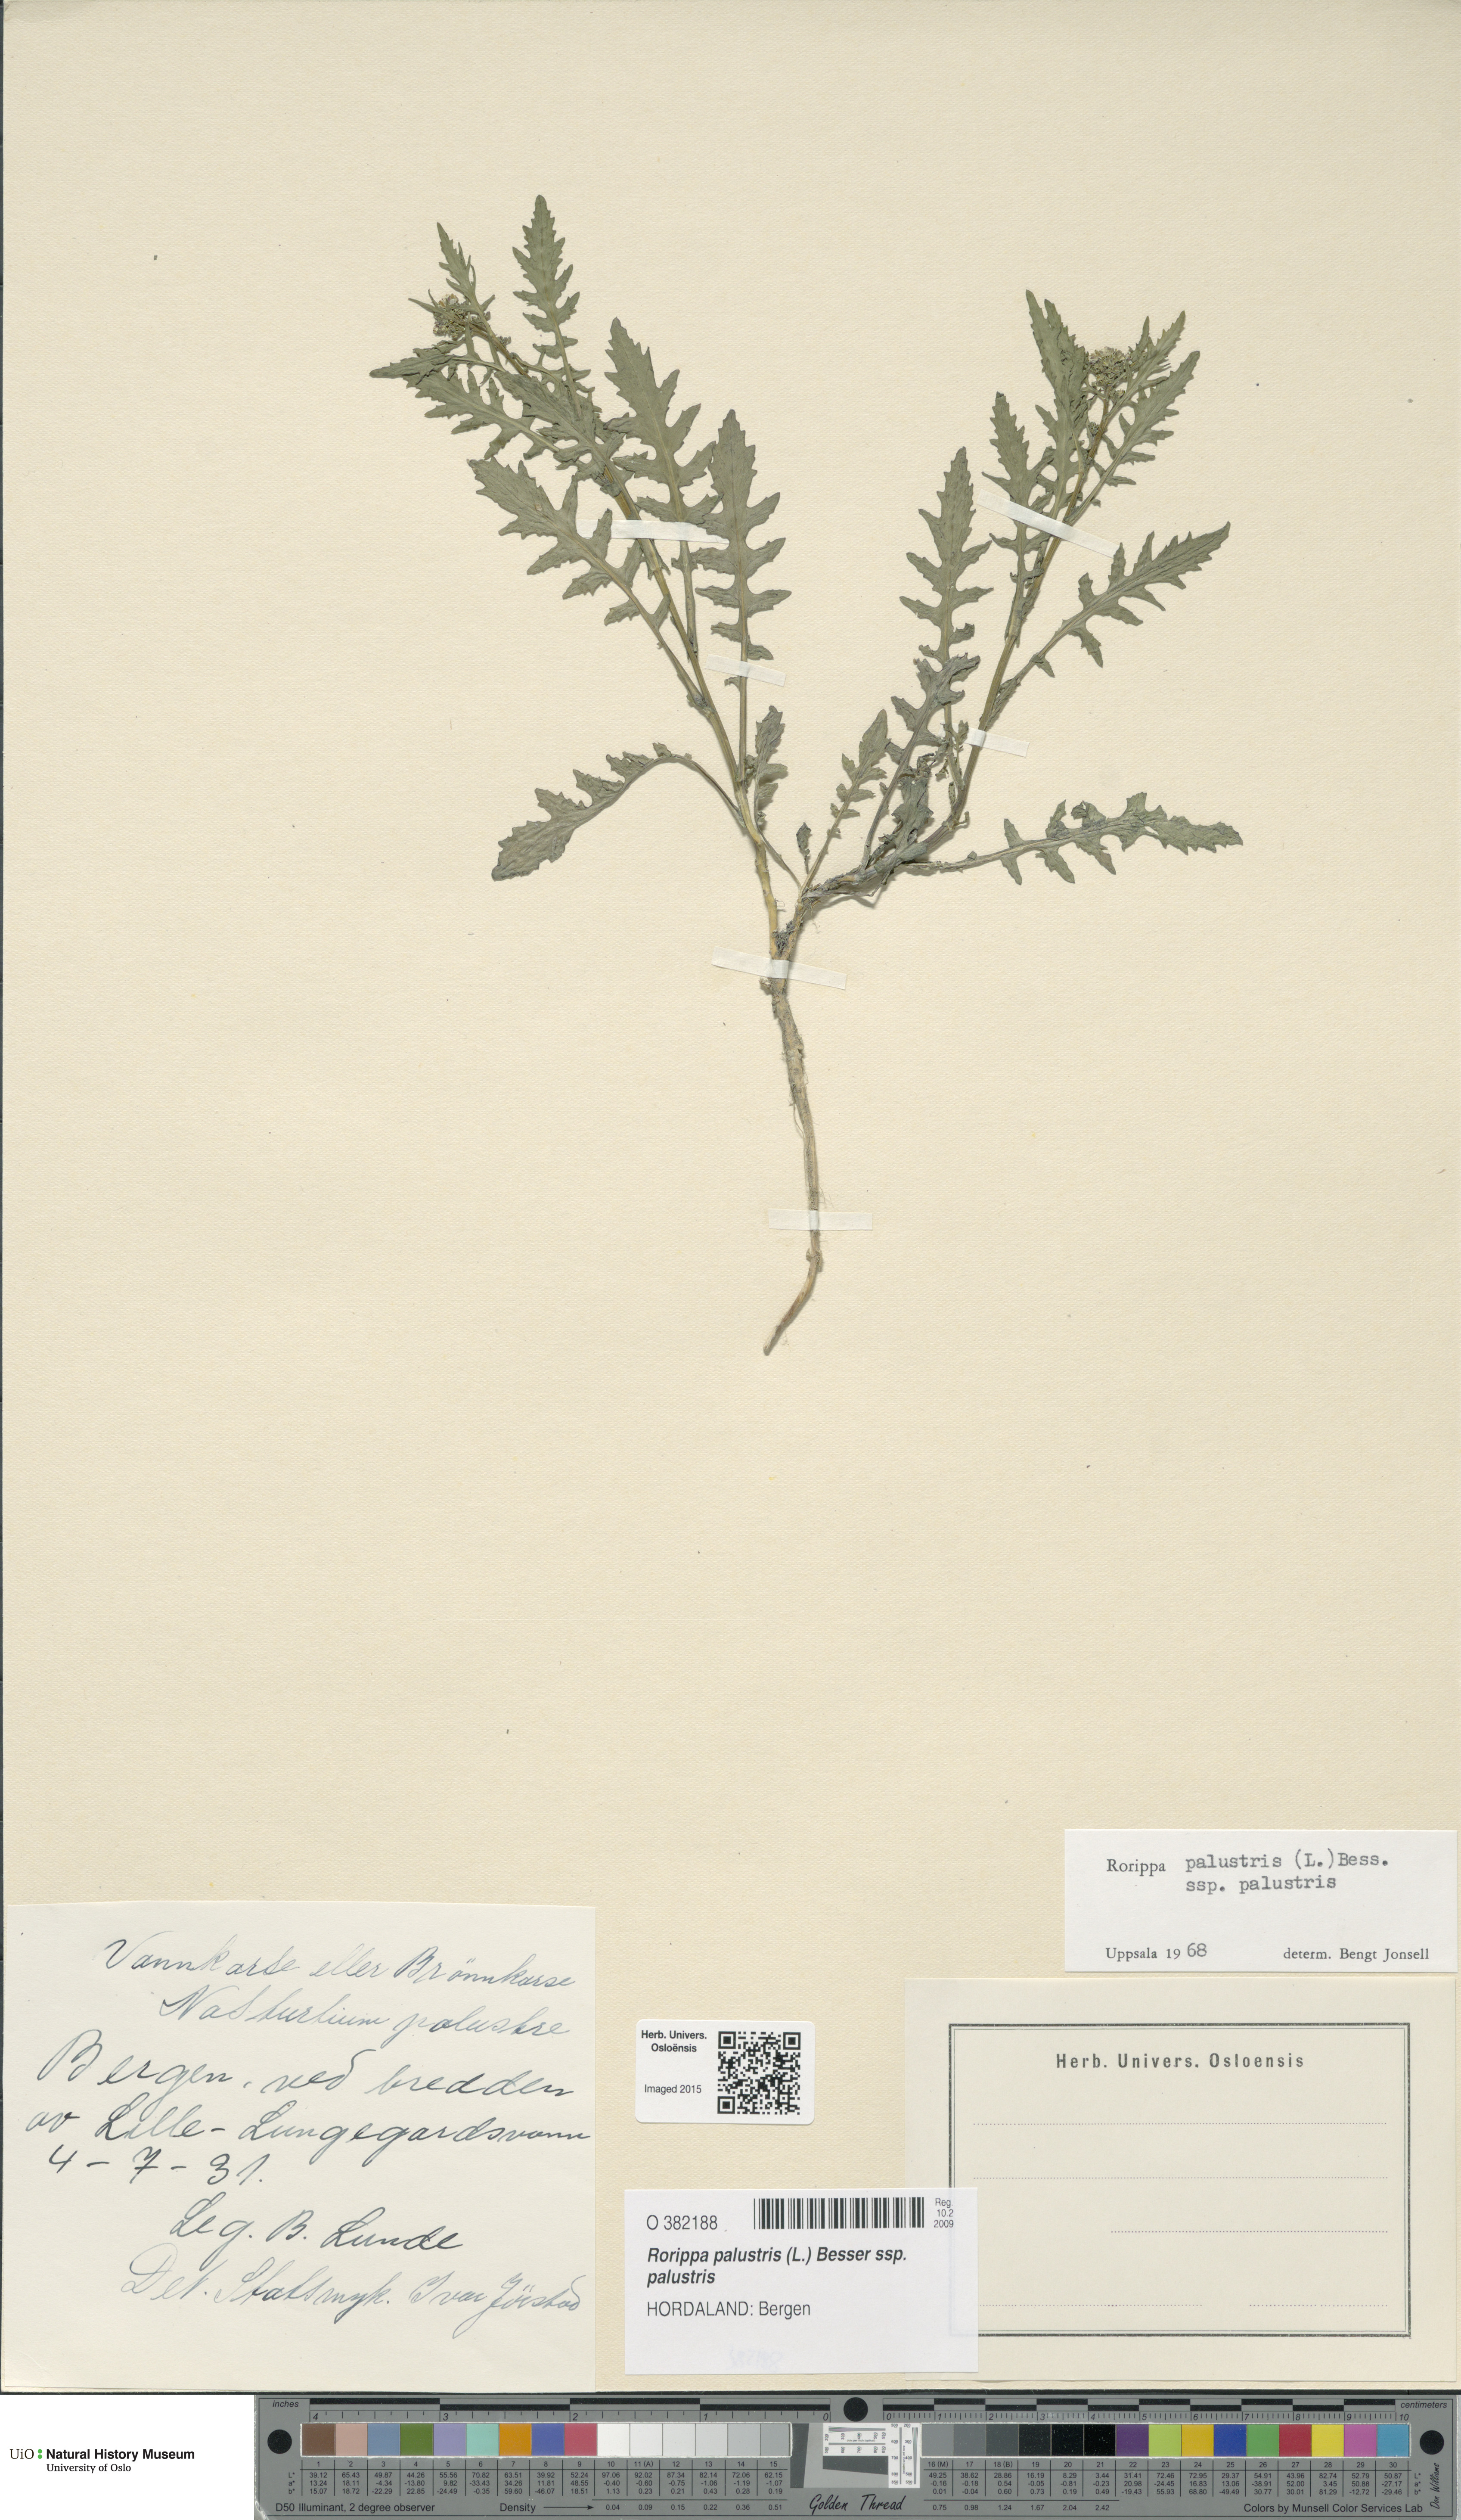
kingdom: Plantae
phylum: Tracheophyta
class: Magnoliopsida
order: Brassicales
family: Brassicaceae
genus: Rorippa
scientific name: Rorippa palustris
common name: Marsh yellow-cress
